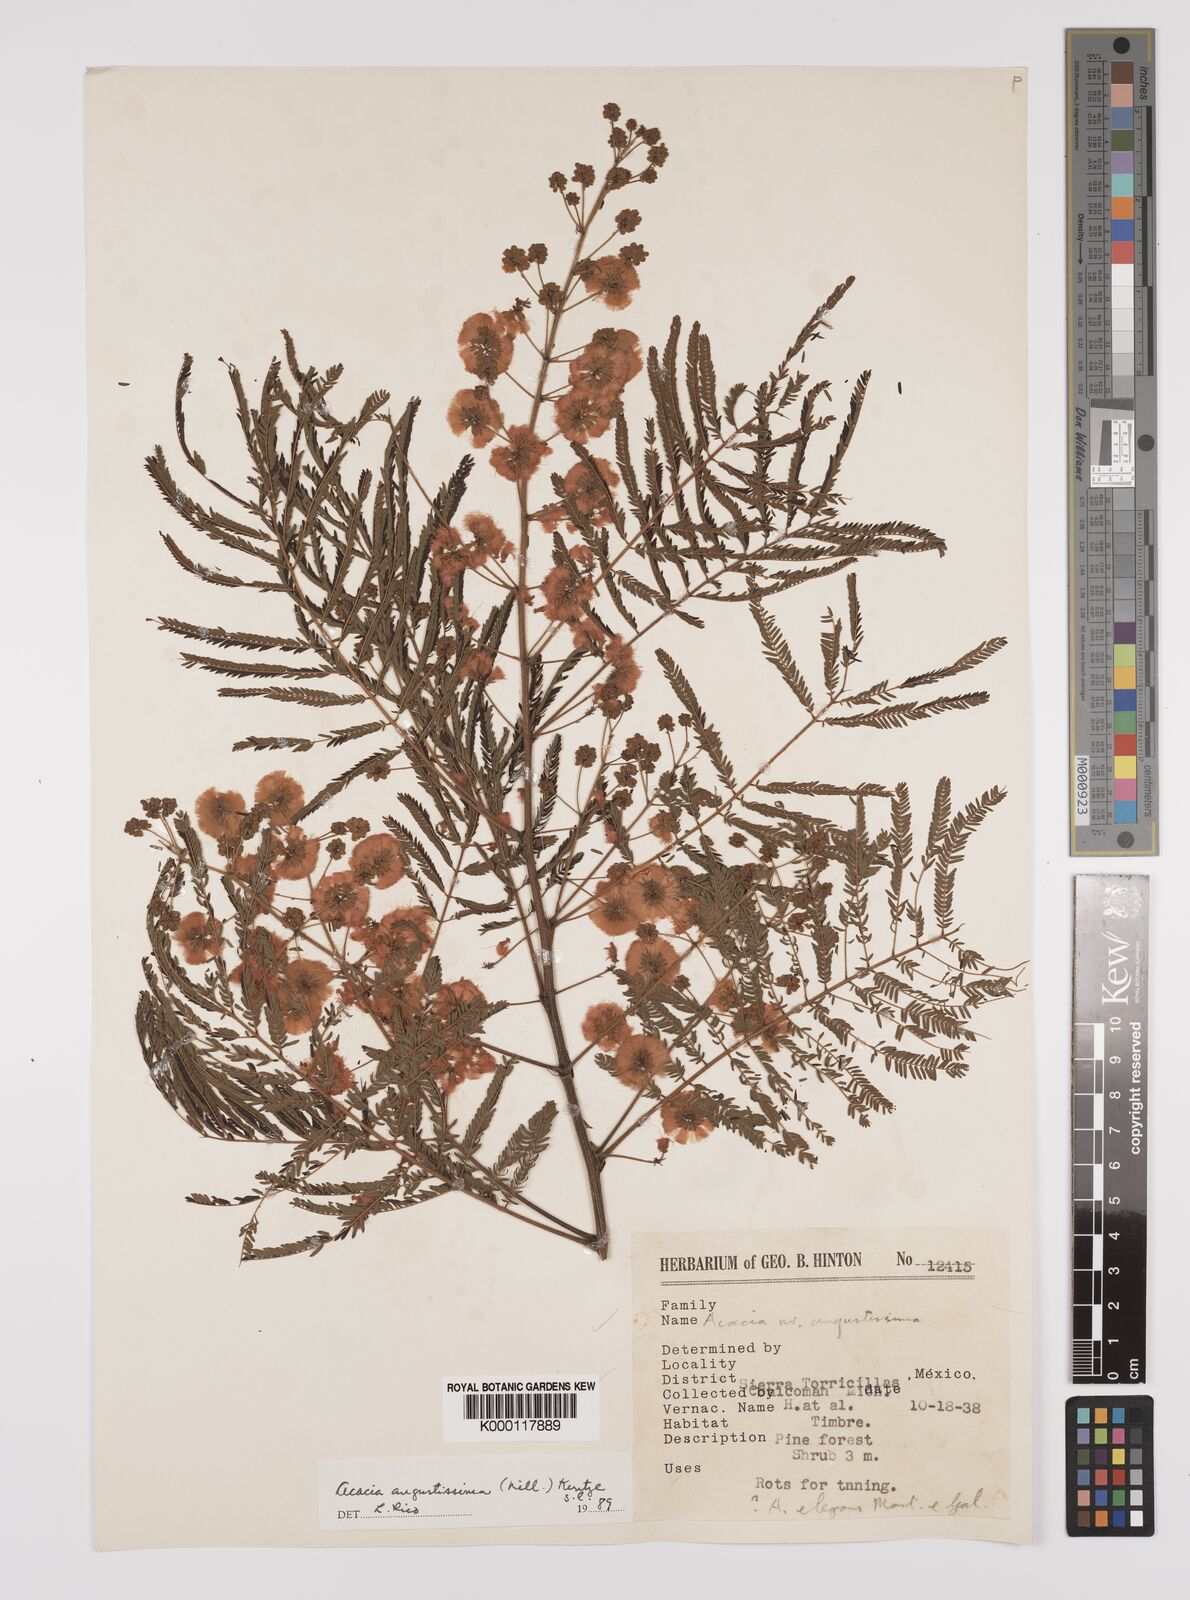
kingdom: Plantae
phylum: Tracheophyta
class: Magnoliopsida
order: Fabales
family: Fabaceae
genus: Acaciella
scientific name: Acaciella angustissima
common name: Prairie acacia
